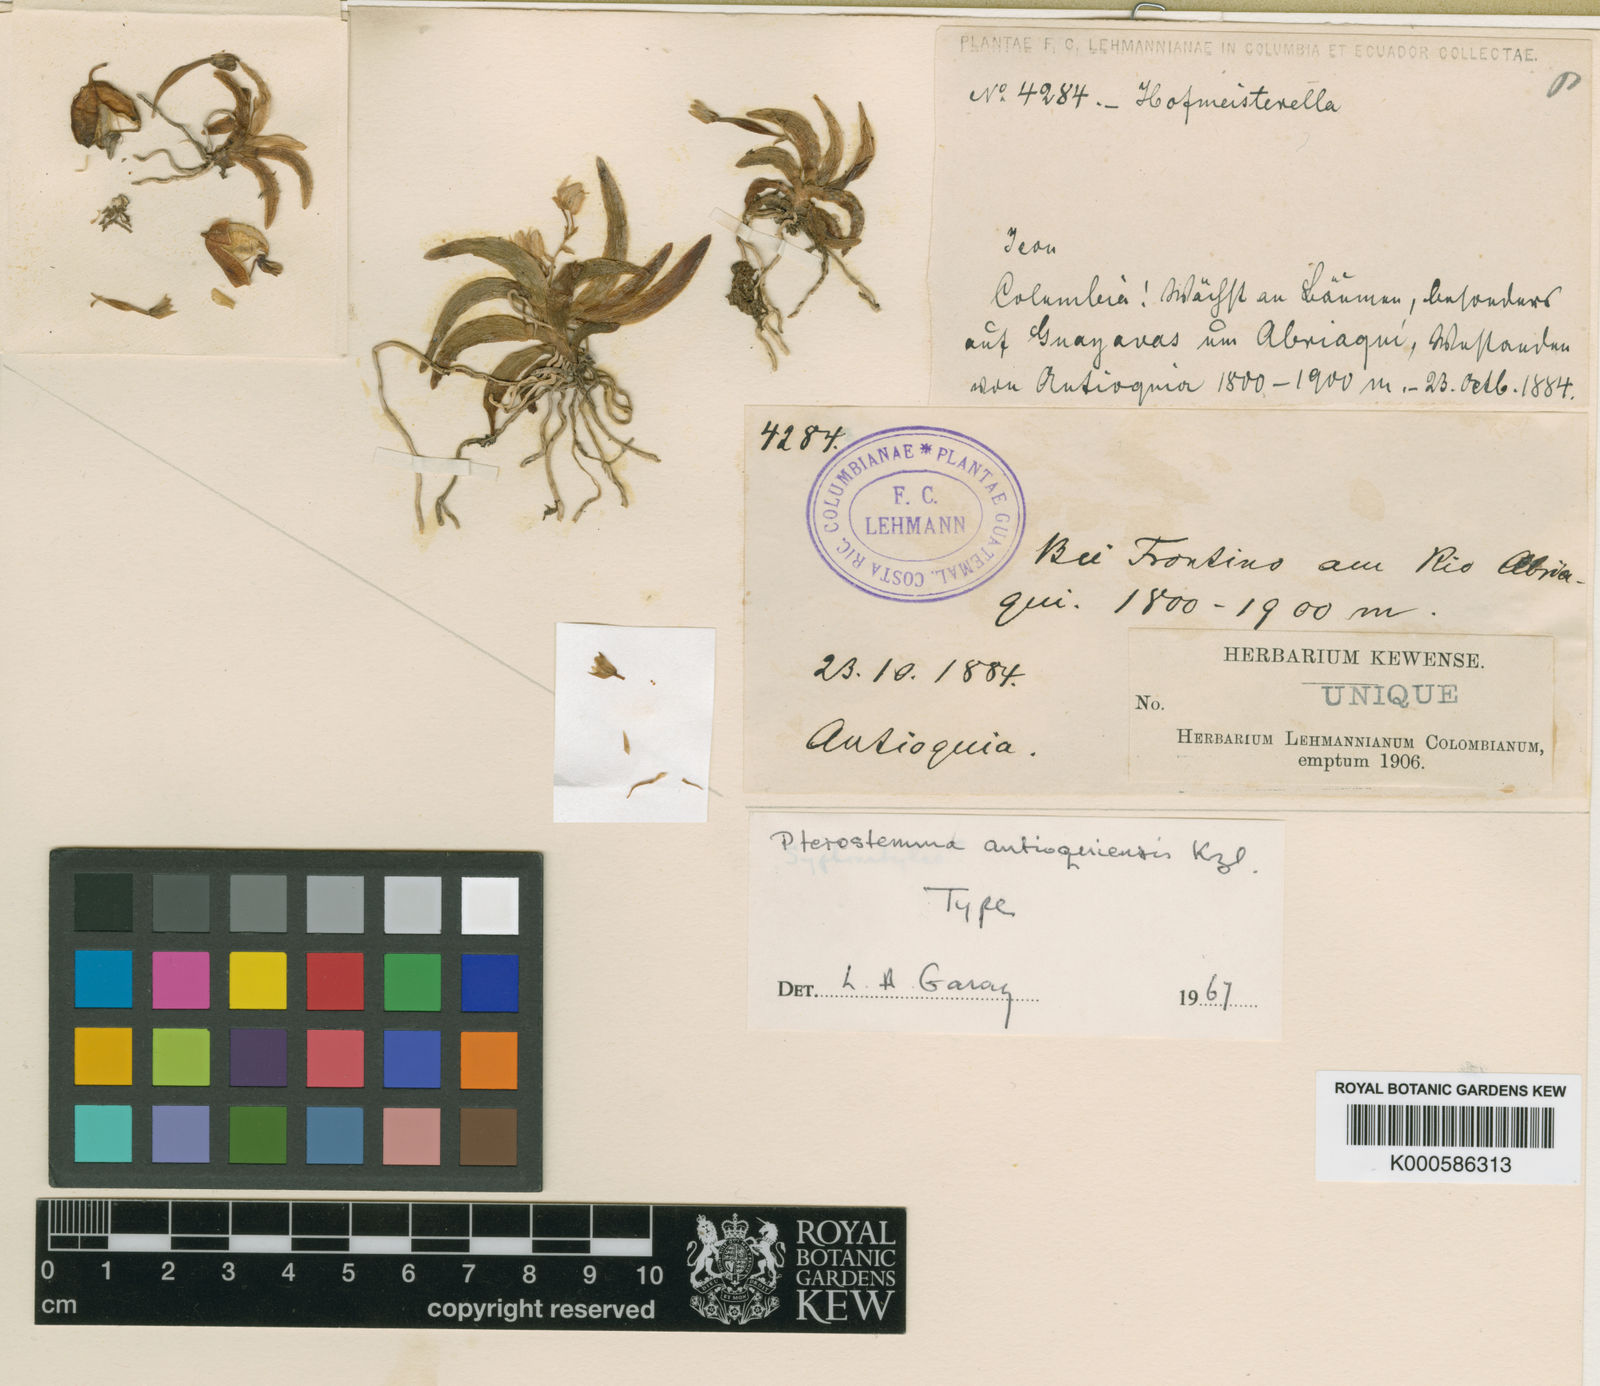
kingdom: Plantae
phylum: Tracheophyta
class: Liliopsida
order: Asparagales
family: Orchidaceae
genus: Pterostemma
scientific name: Pterostemma antioquiense
